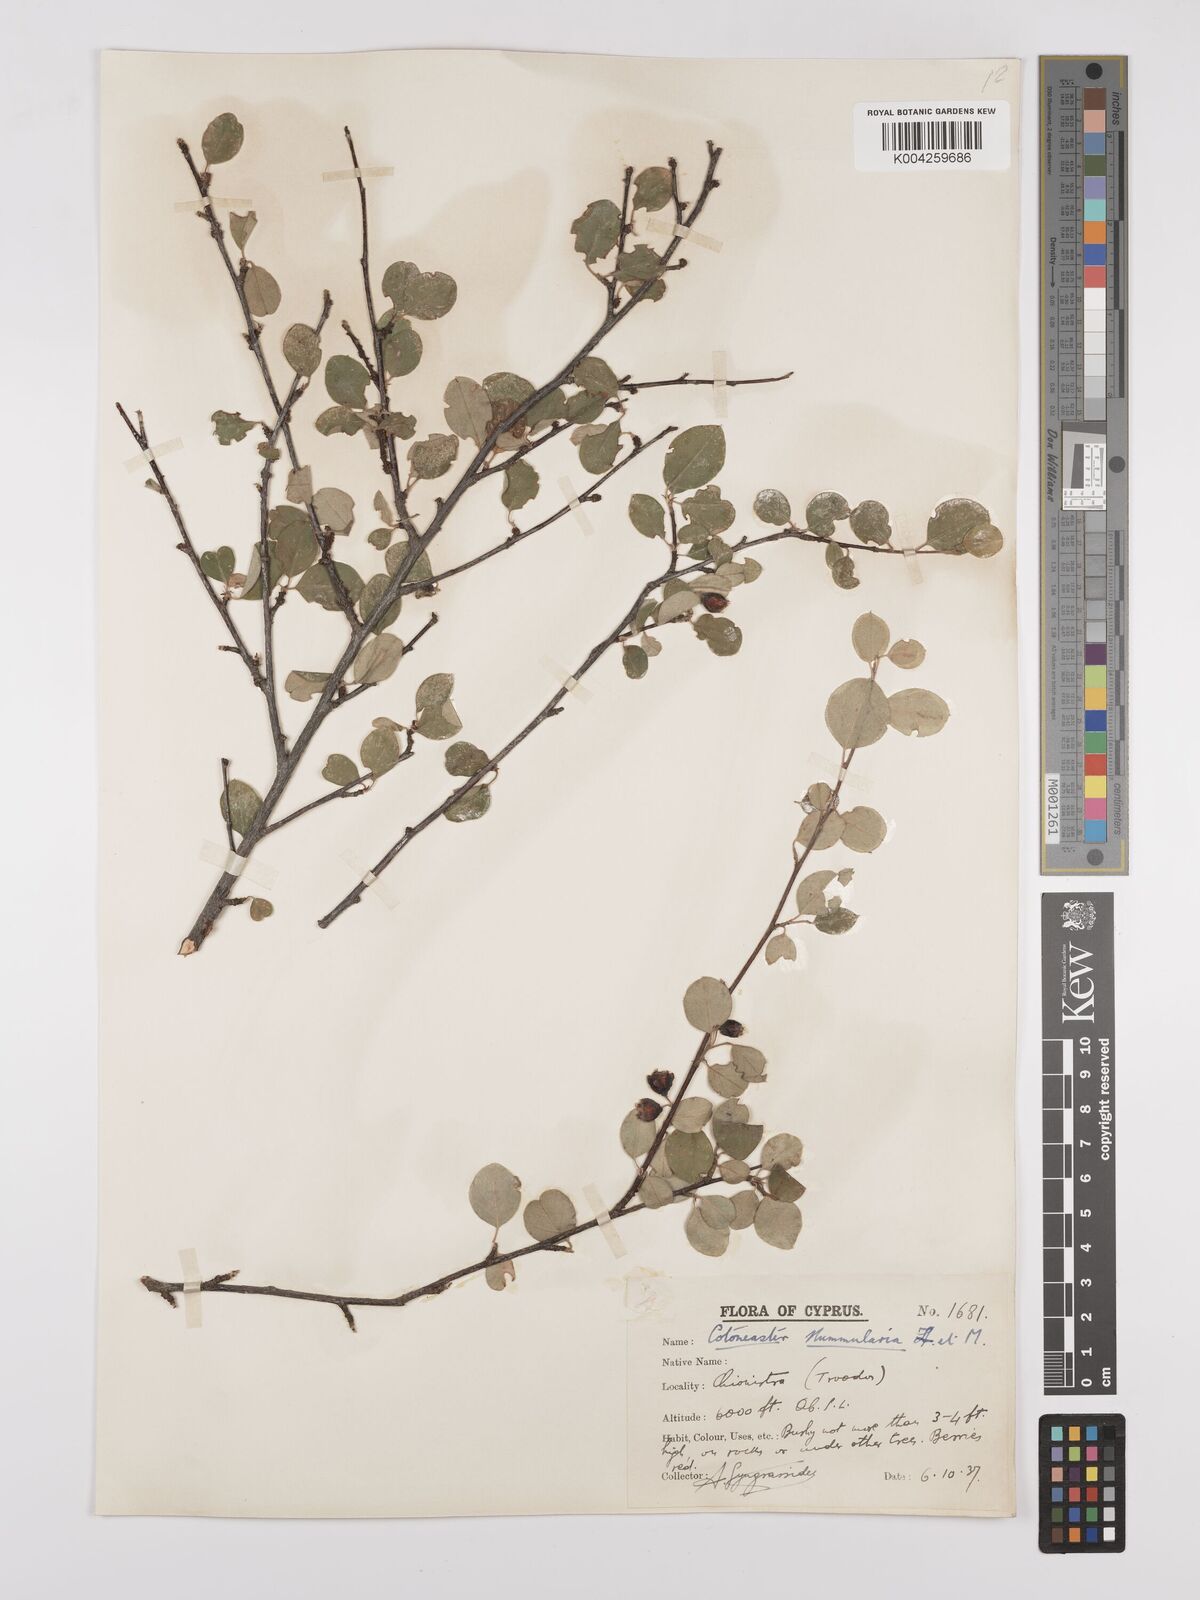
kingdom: Plantae
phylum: Tracheophyta
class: Magnoliopsida
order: Rosales
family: Rosaceae
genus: Cotoneaster
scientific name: Cotoneaster nummularius
